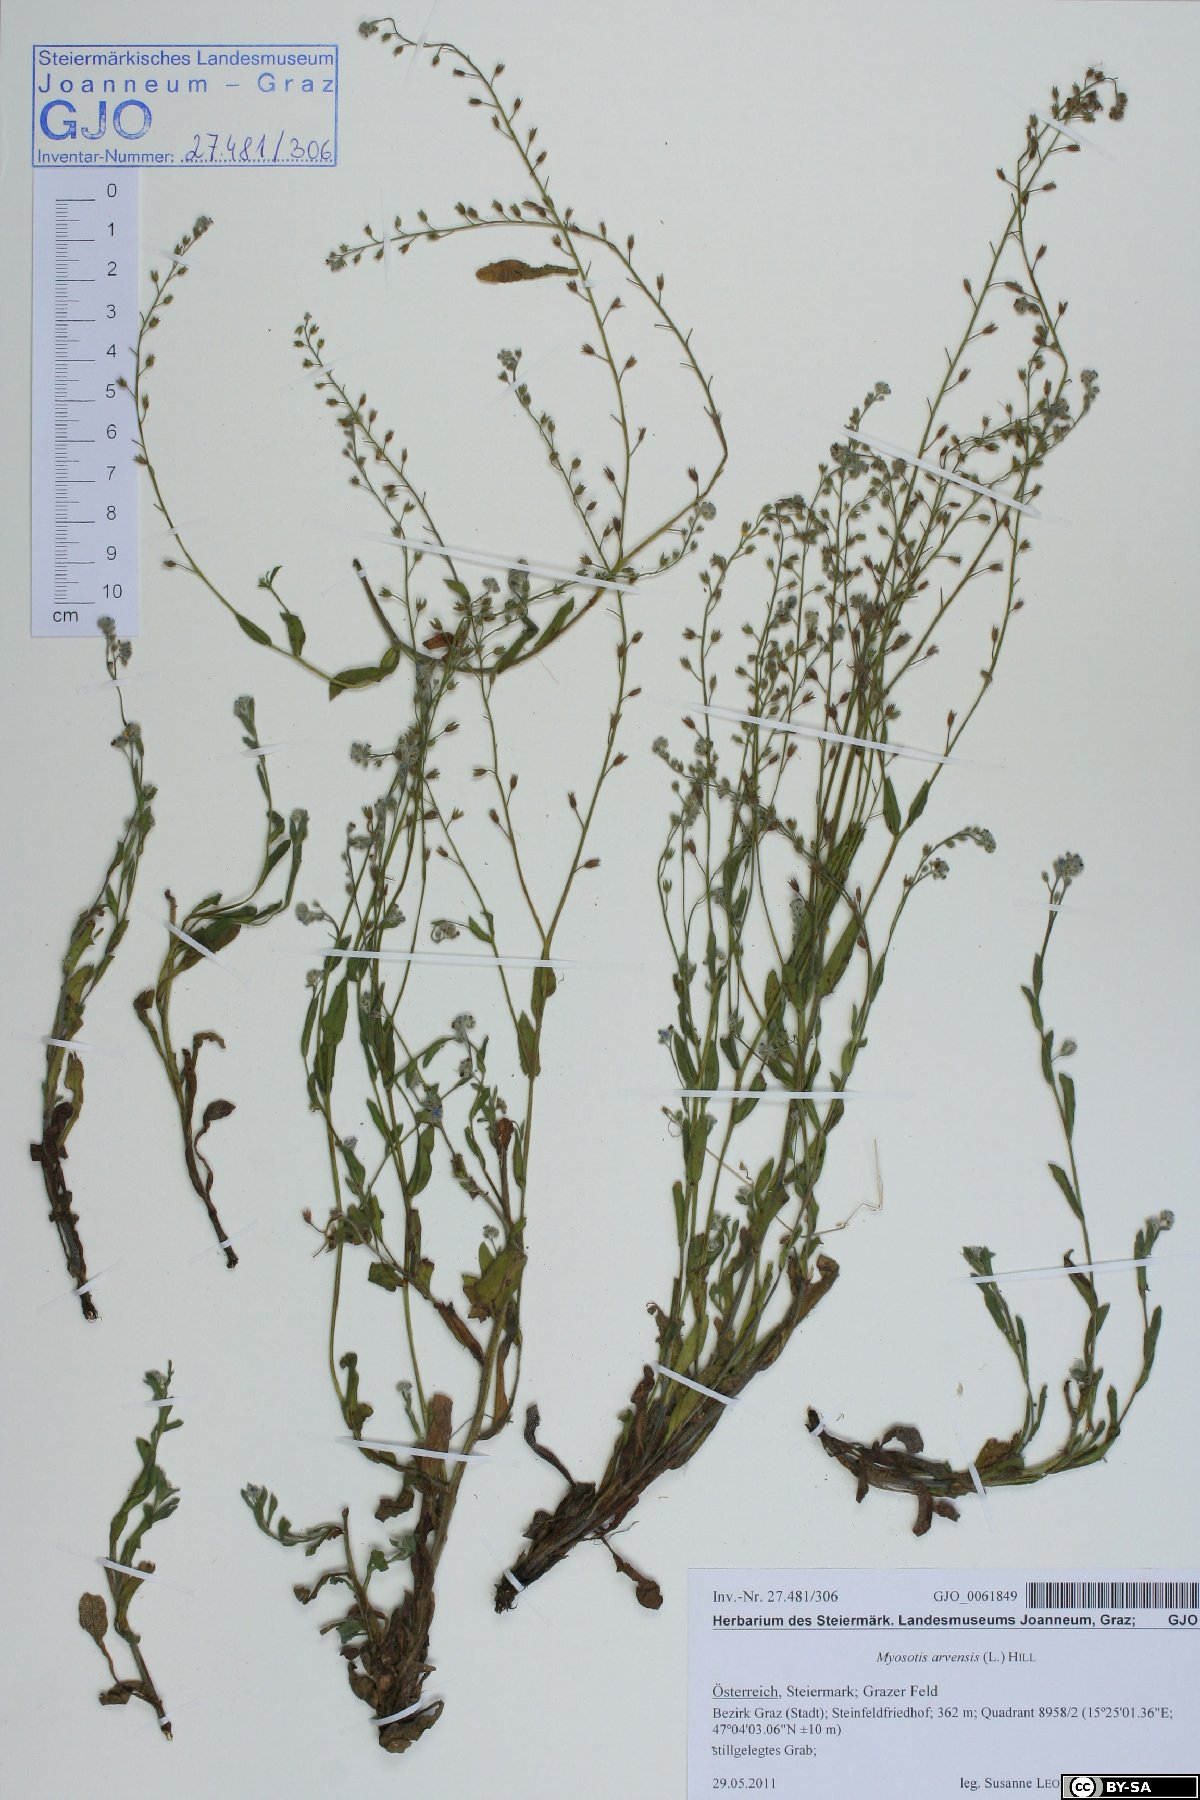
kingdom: Plantae
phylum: Tracheophyta
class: Magnoliopsida
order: Boraginales
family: Boraginaceae
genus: Myosotis
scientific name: Myosotis arvensis
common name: Field forget-me-not
